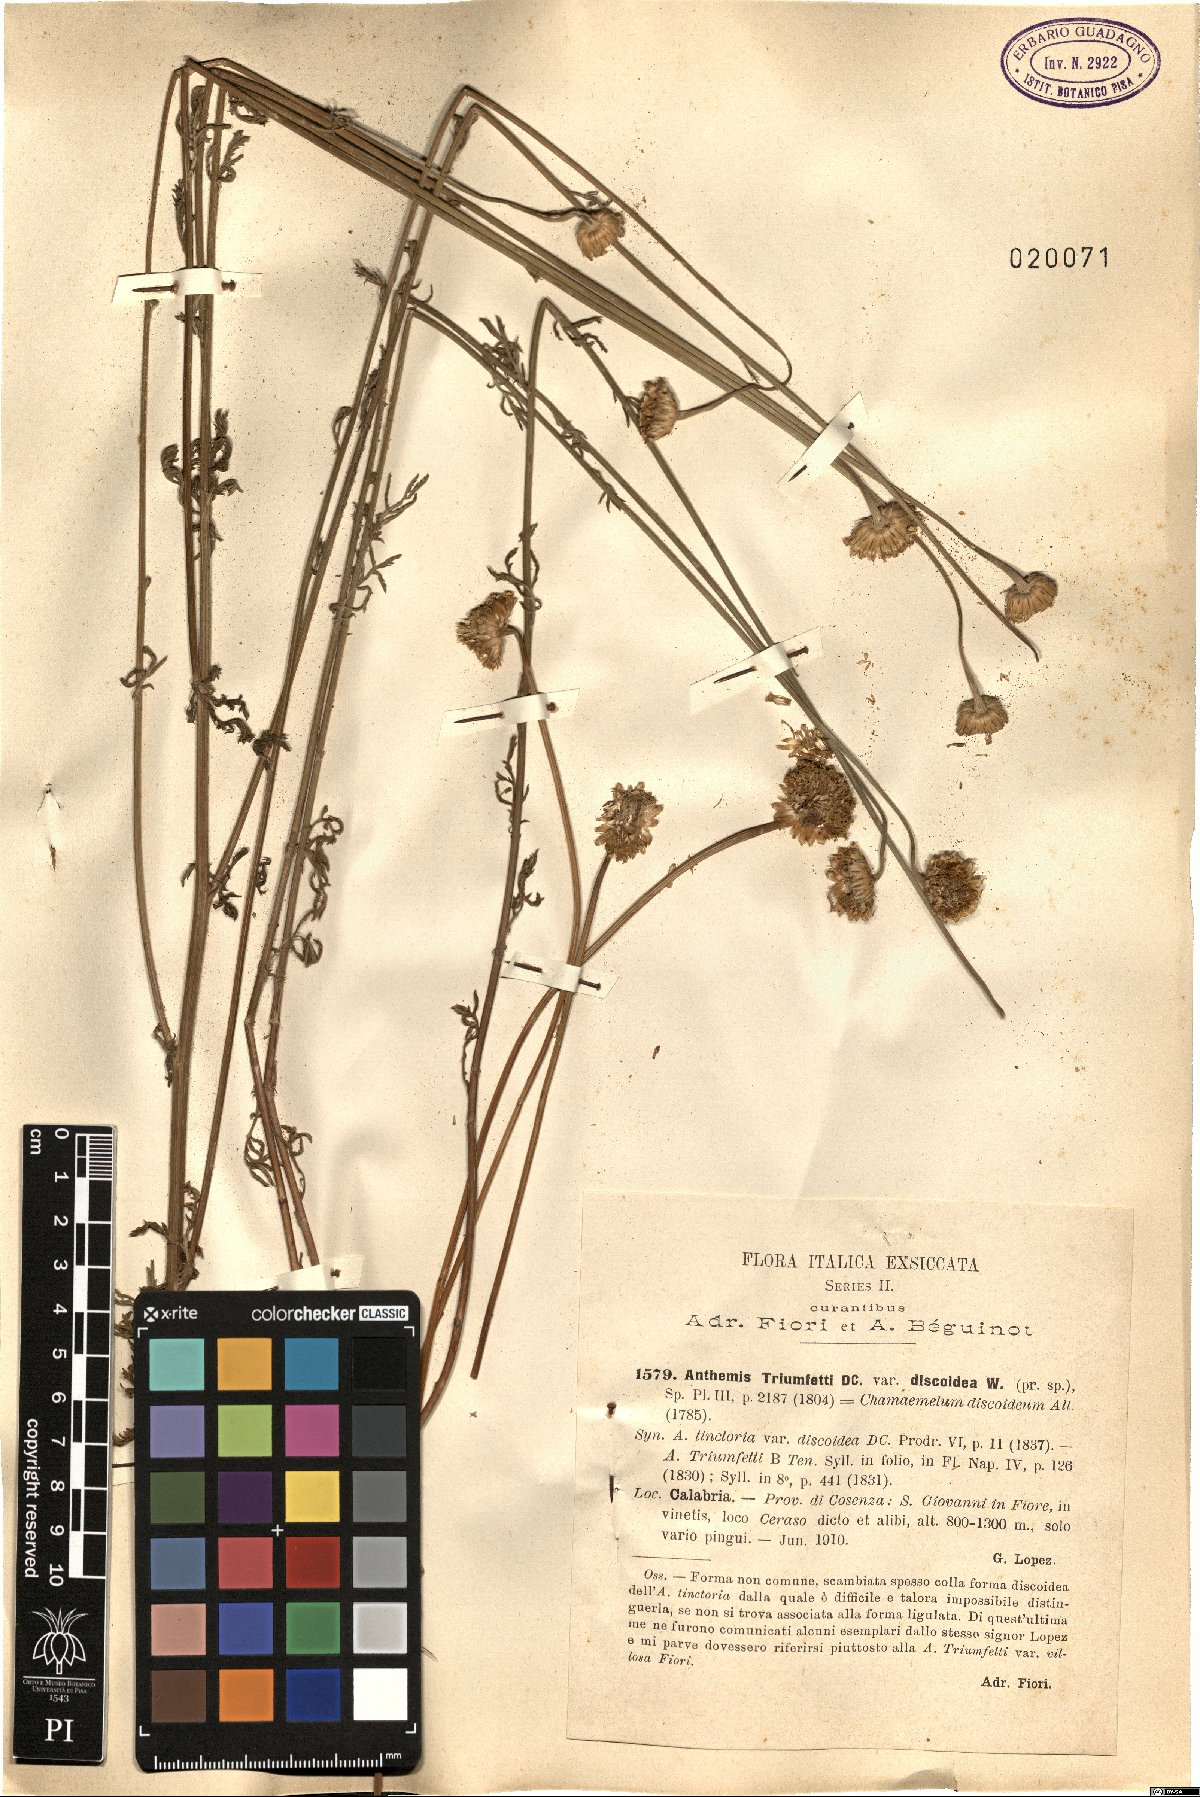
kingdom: Plantae
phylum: Tracheophyta
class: Magnoliopsida
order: Asterales
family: Asteraceae
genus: Cota
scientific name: Cota triumfetti
